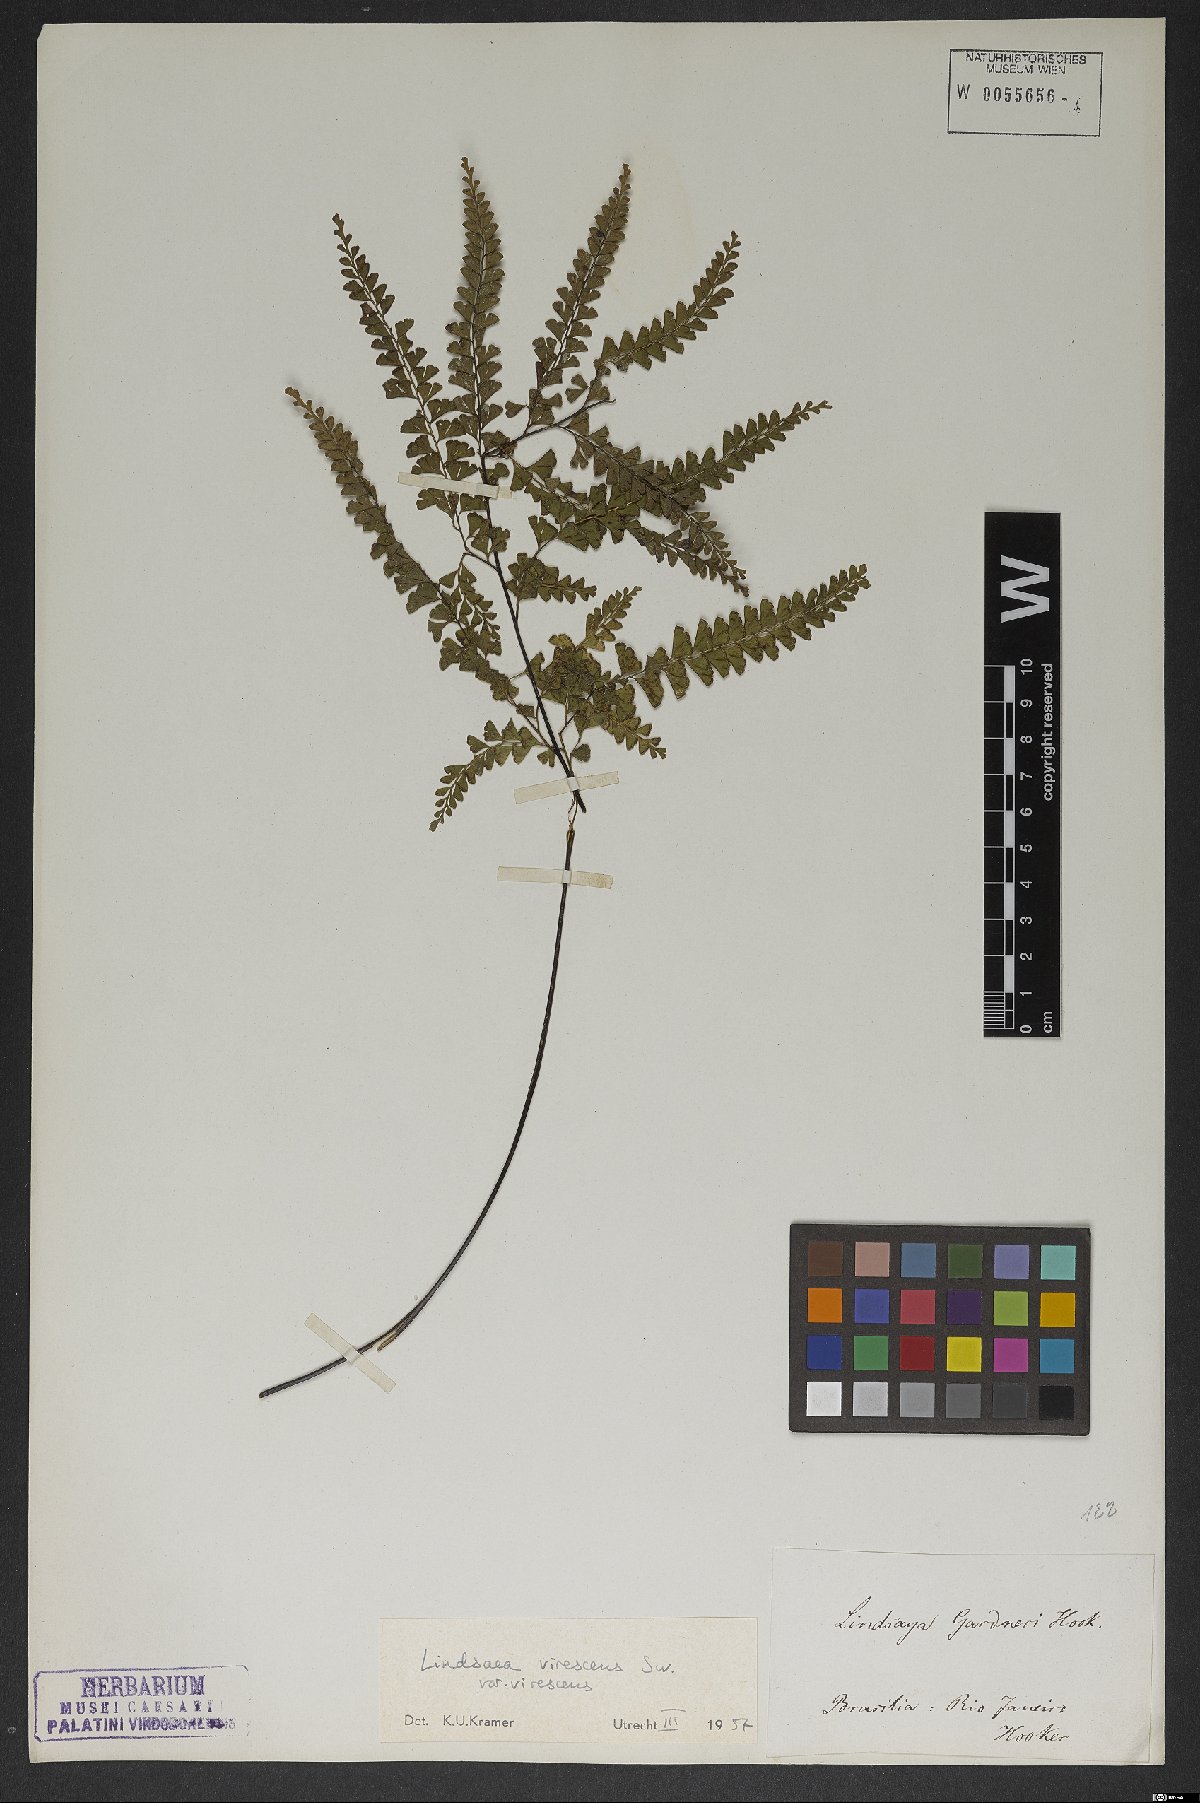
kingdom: Plantae
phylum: Tracheophyta
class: Polypodiopsida
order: Polypodiales
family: Lindsaeaceae
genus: Lindsaea
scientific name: Lindsaea virescens
